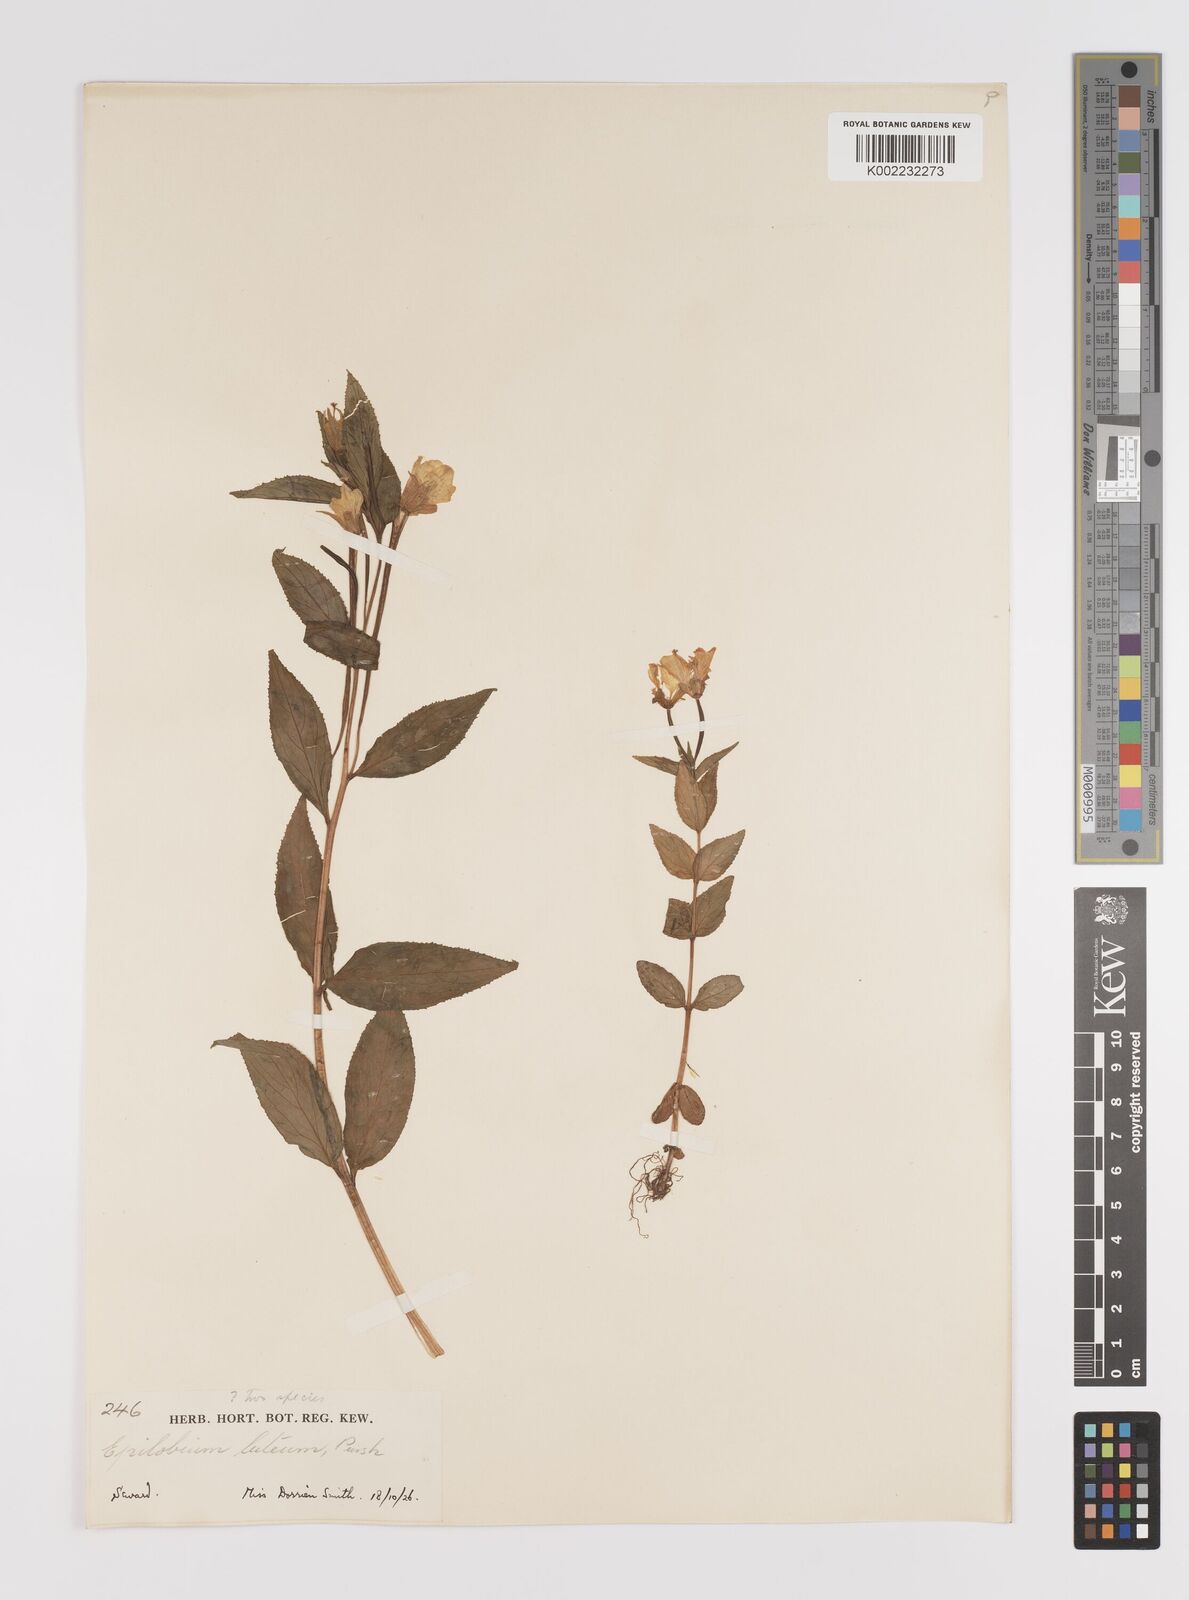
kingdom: Plantae
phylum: Tracheophyta
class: Magnoliopsida
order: Myrtales
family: Onagraceae
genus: Epilobium
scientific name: Epilobium luteum
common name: Yellow willowherb
